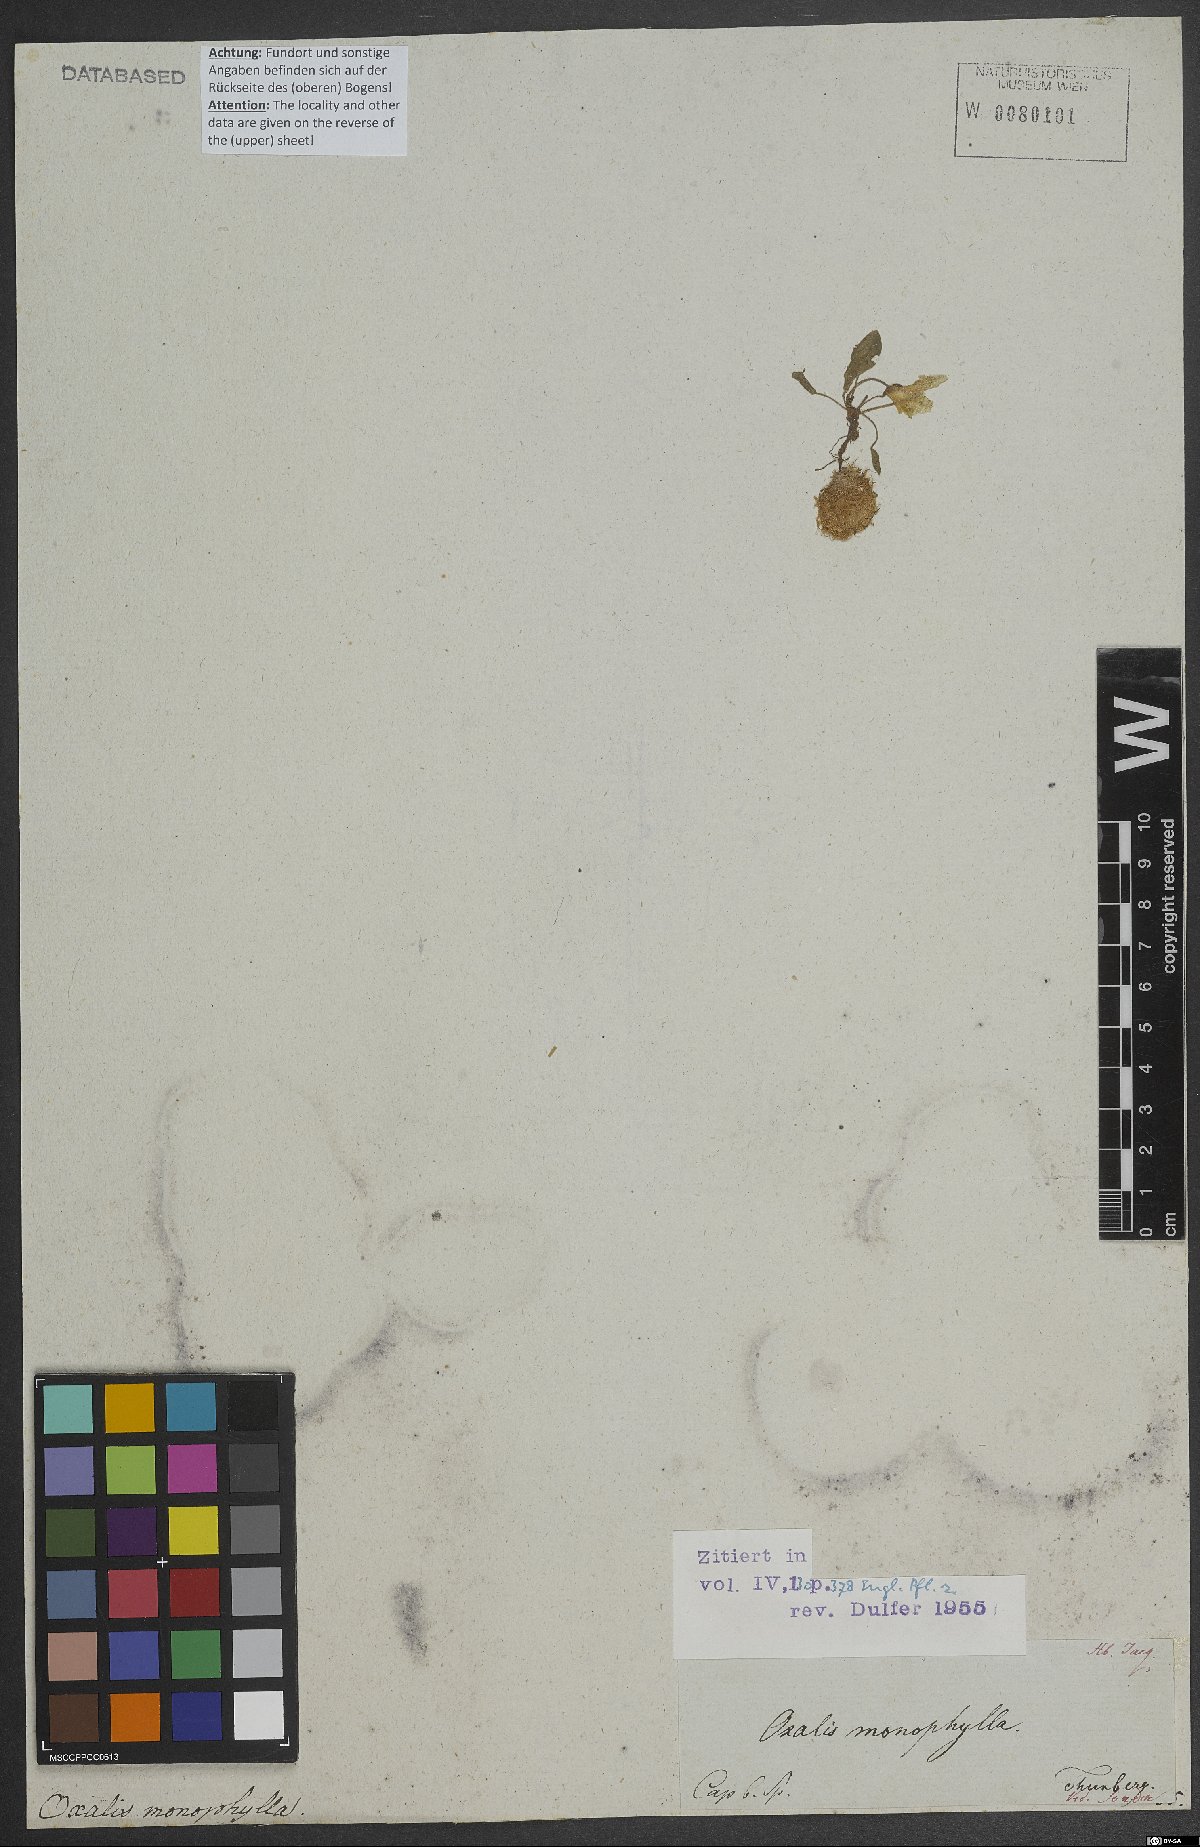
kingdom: Plantae
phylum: Tracheophyta
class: Magnoliopsida
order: Oxalidales
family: Oxalidaceae
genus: Oxalis
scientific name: Oxalis monophylla
